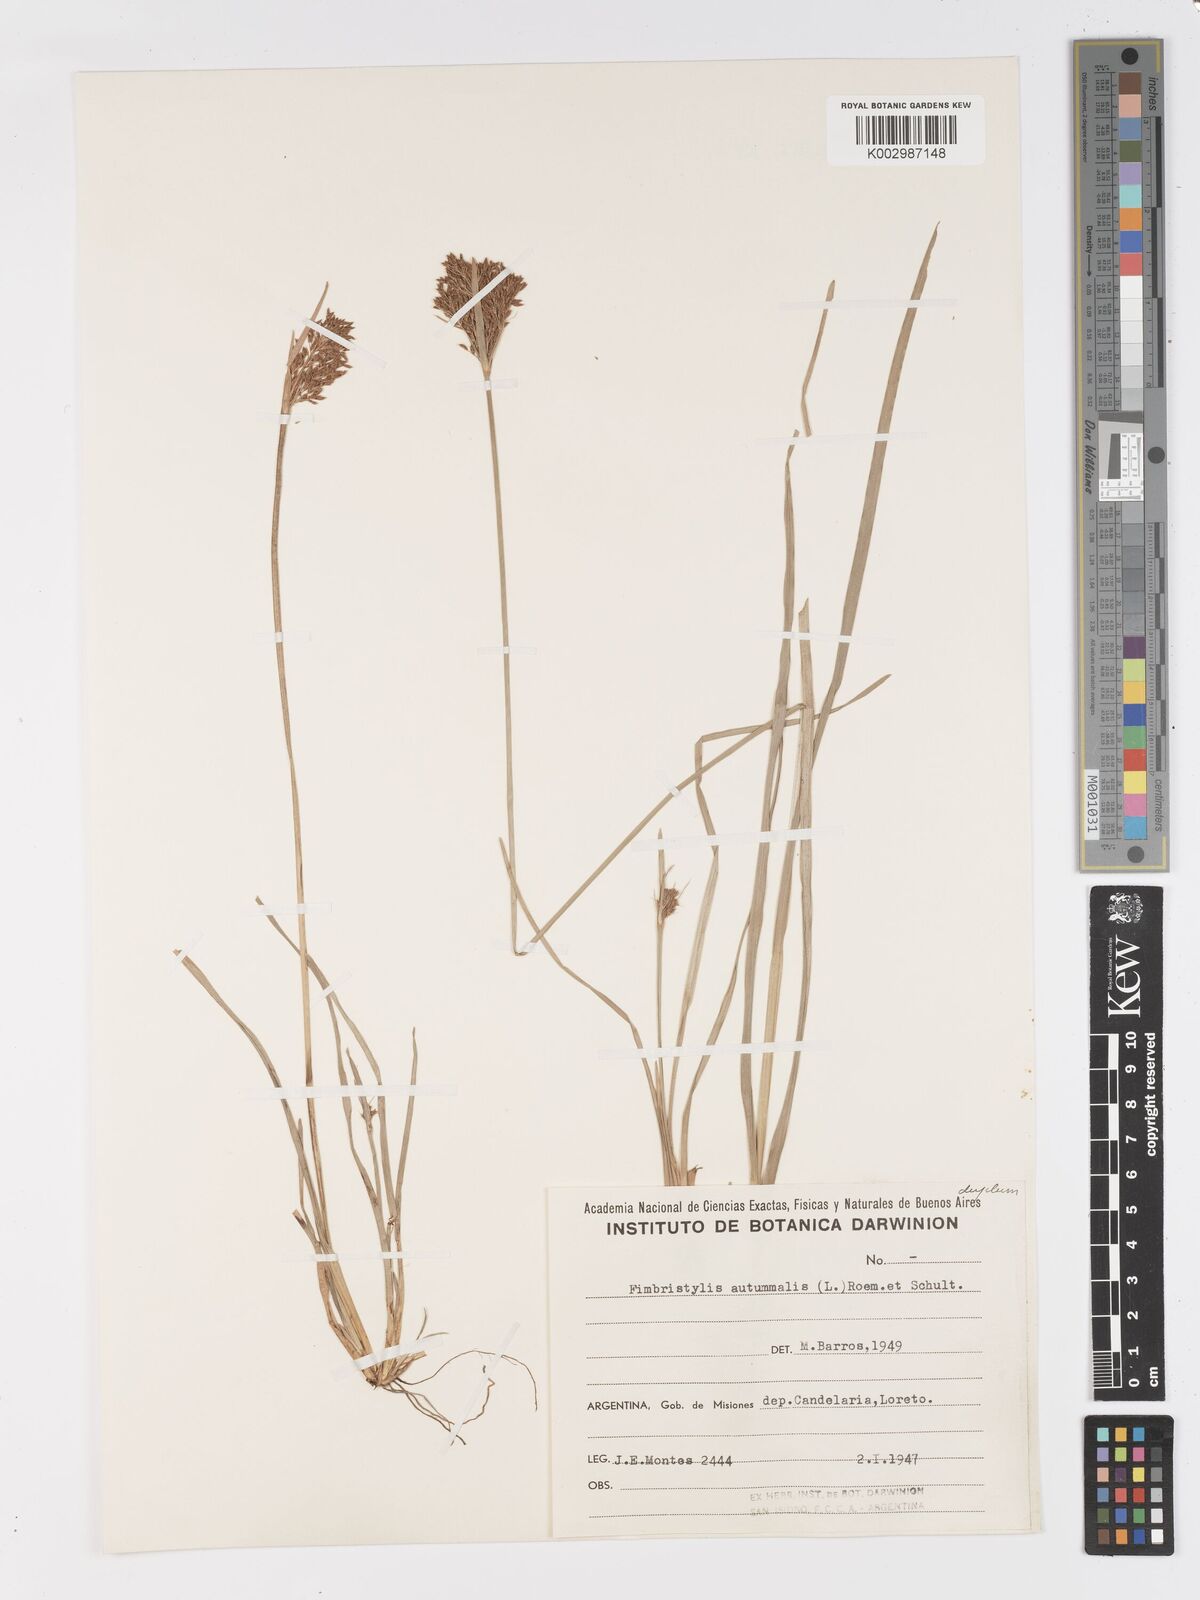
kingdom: Plantae
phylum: Tracheophyta
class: Liliopsida
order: Poales
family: Cyperaceae
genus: Fimbristylis
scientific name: Fimbristylis autumnalis
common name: Slender fimbristylis
